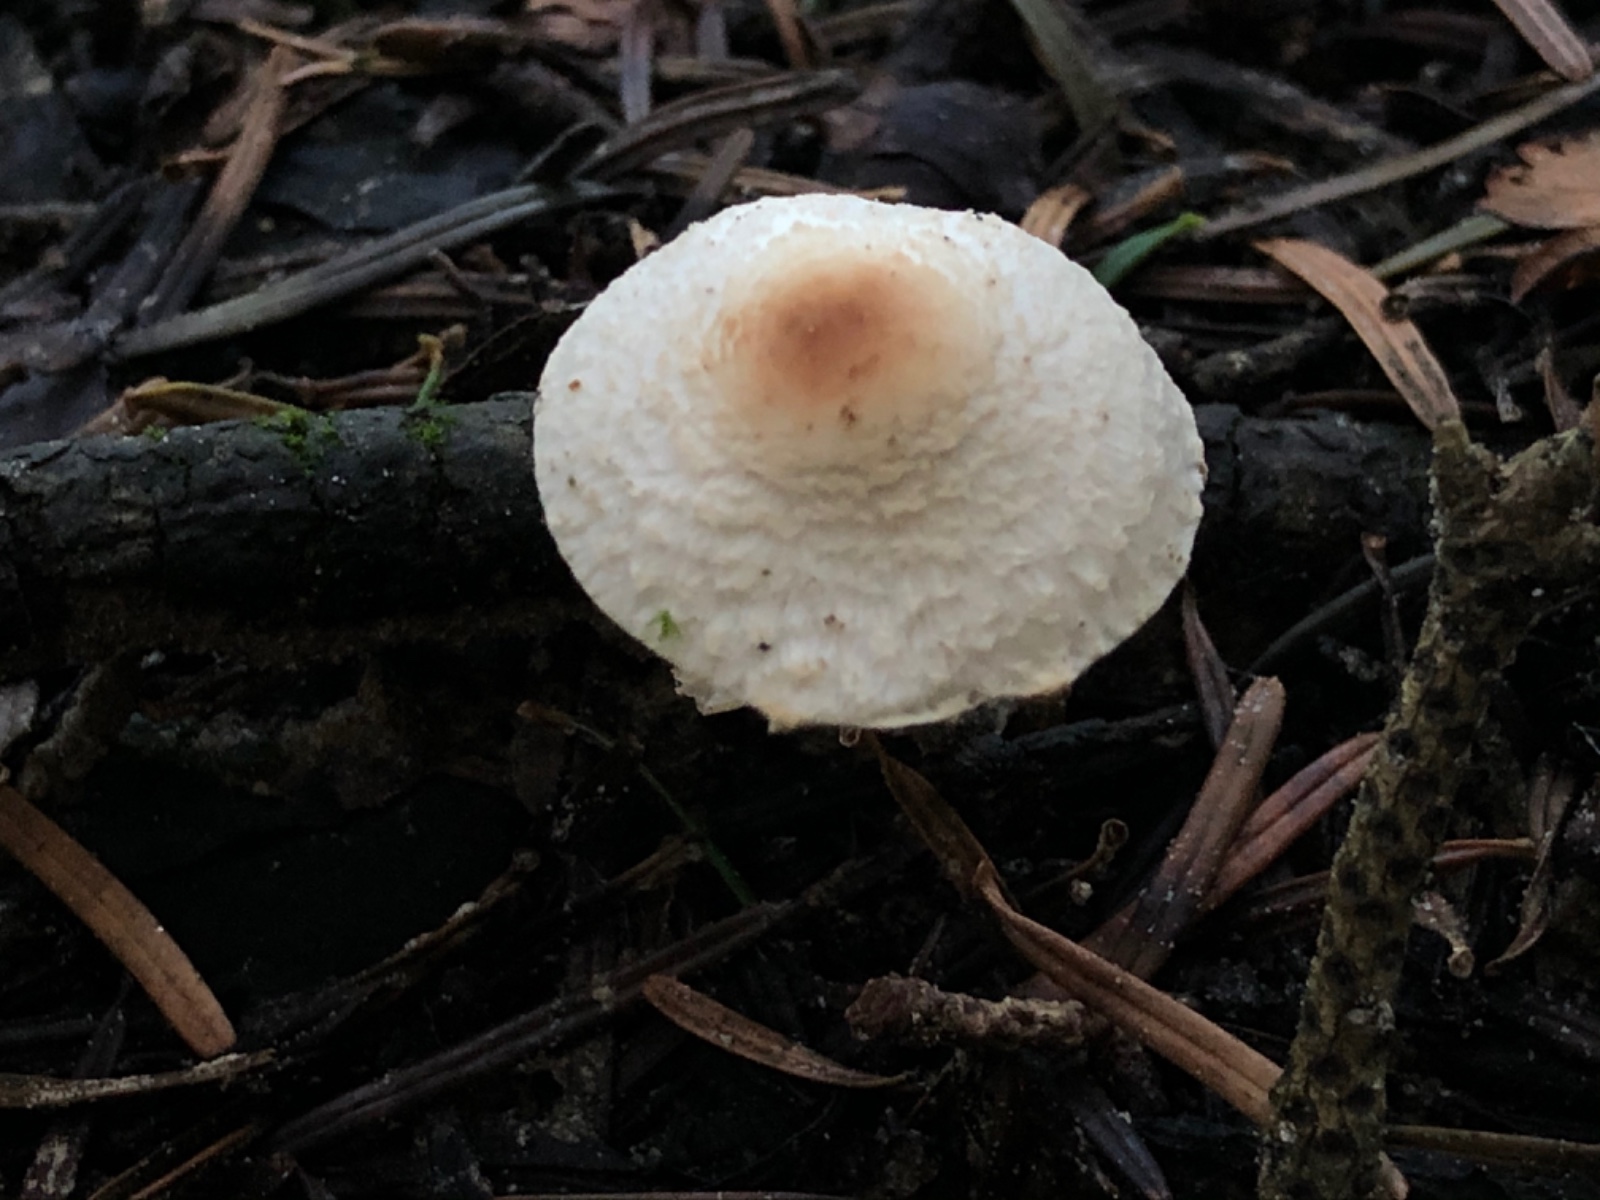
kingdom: Fungi
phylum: Basidiomycota
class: Agaricomycetes
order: Agaricales
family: Agaricaceae
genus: Lepiota
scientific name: Lepiota cristata
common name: stinkende parasolhat
